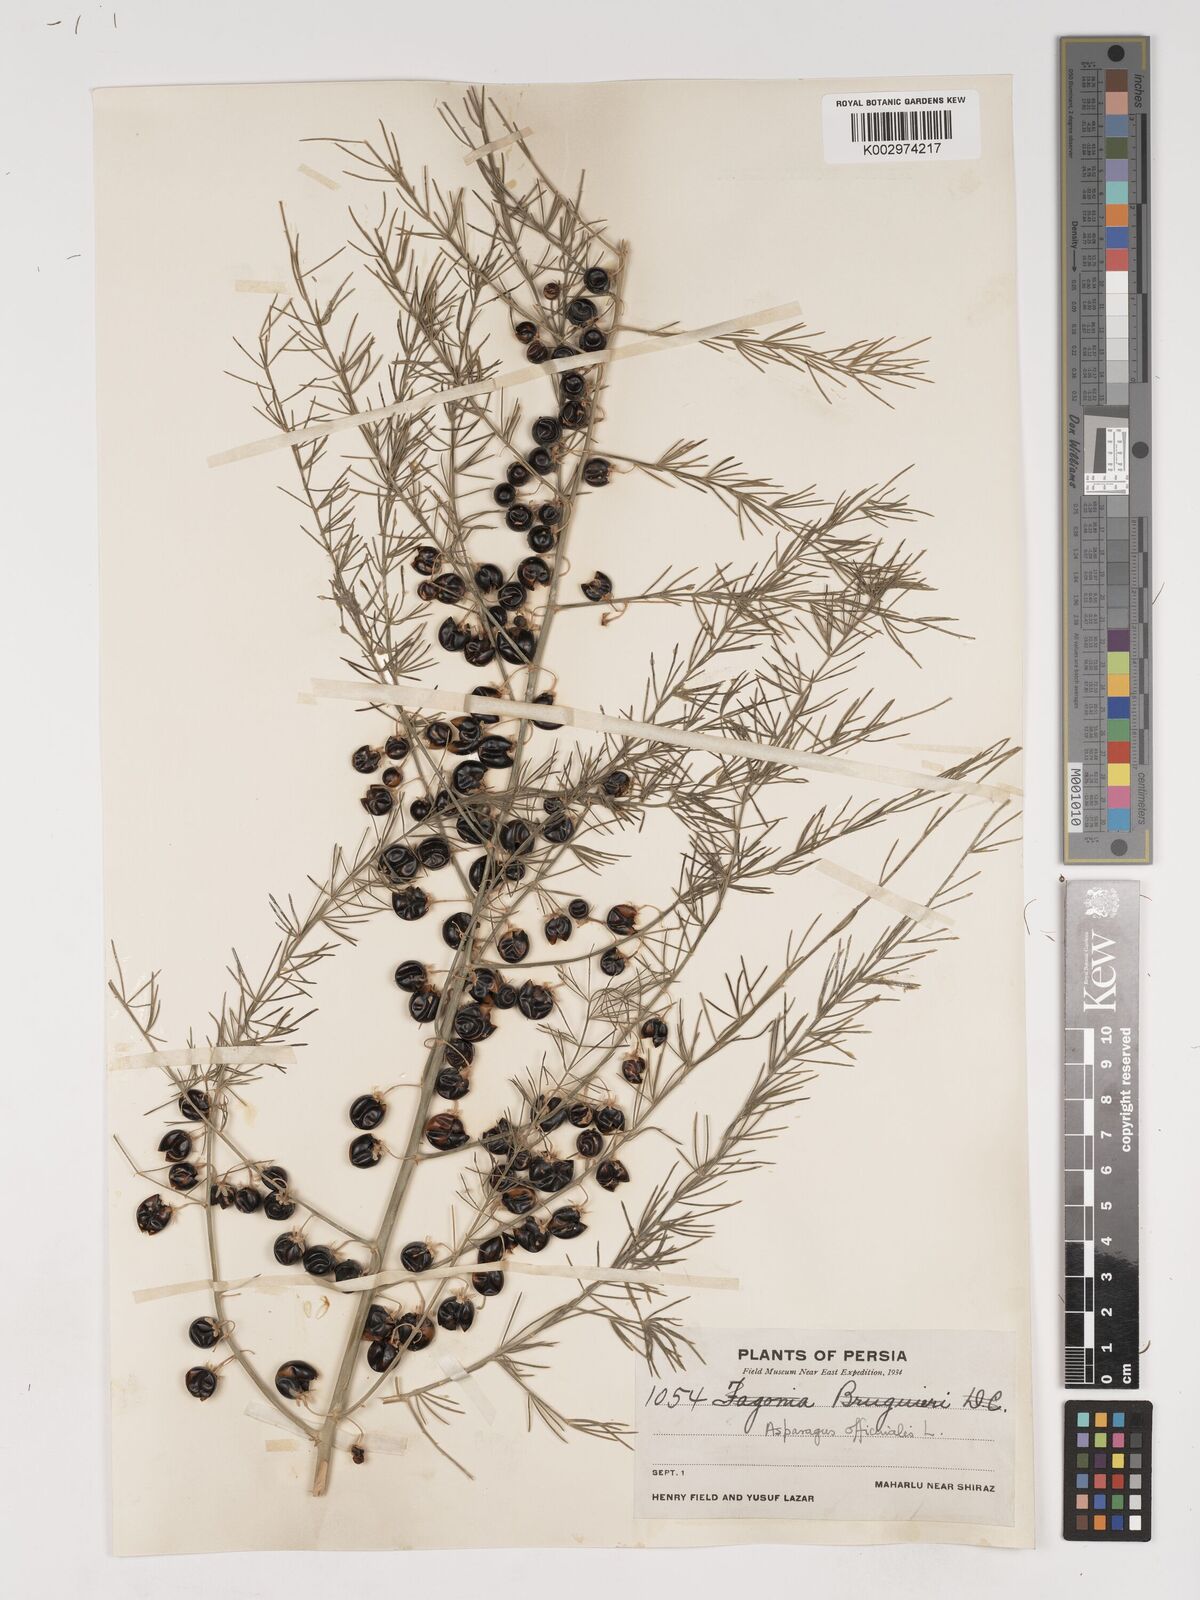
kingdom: Plantae
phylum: Tracheophyta
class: Liliopsida
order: Asparagales
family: Asparagaceae
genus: Asparagus
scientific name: Asparagus officinalis
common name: Garden asparagus
